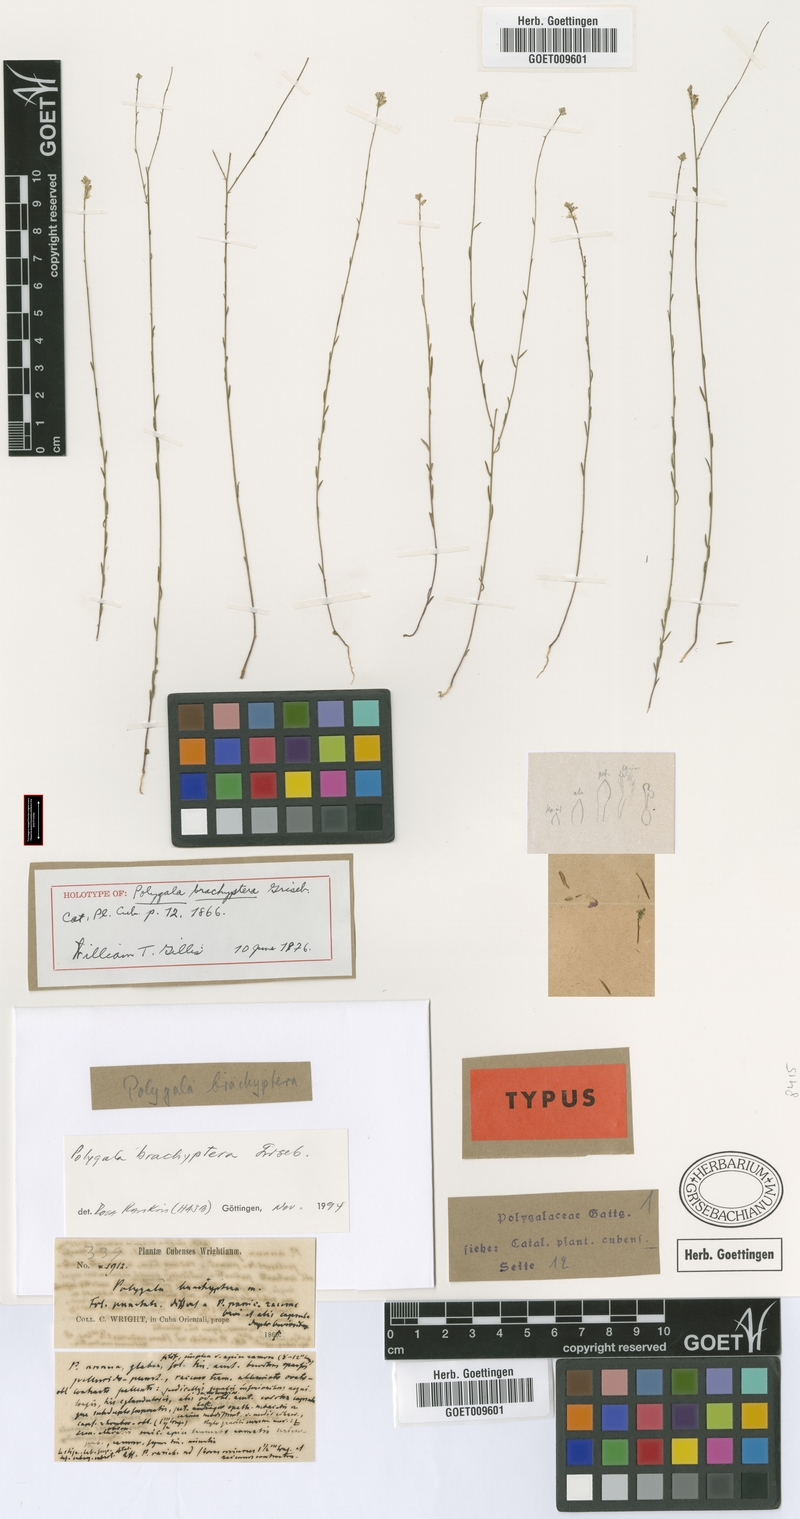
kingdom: Plantae
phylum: Tracheophyta
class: Magnoliopsida
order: Fabales
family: Polygalaceae
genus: Polygala
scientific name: Polygala brachyptera
